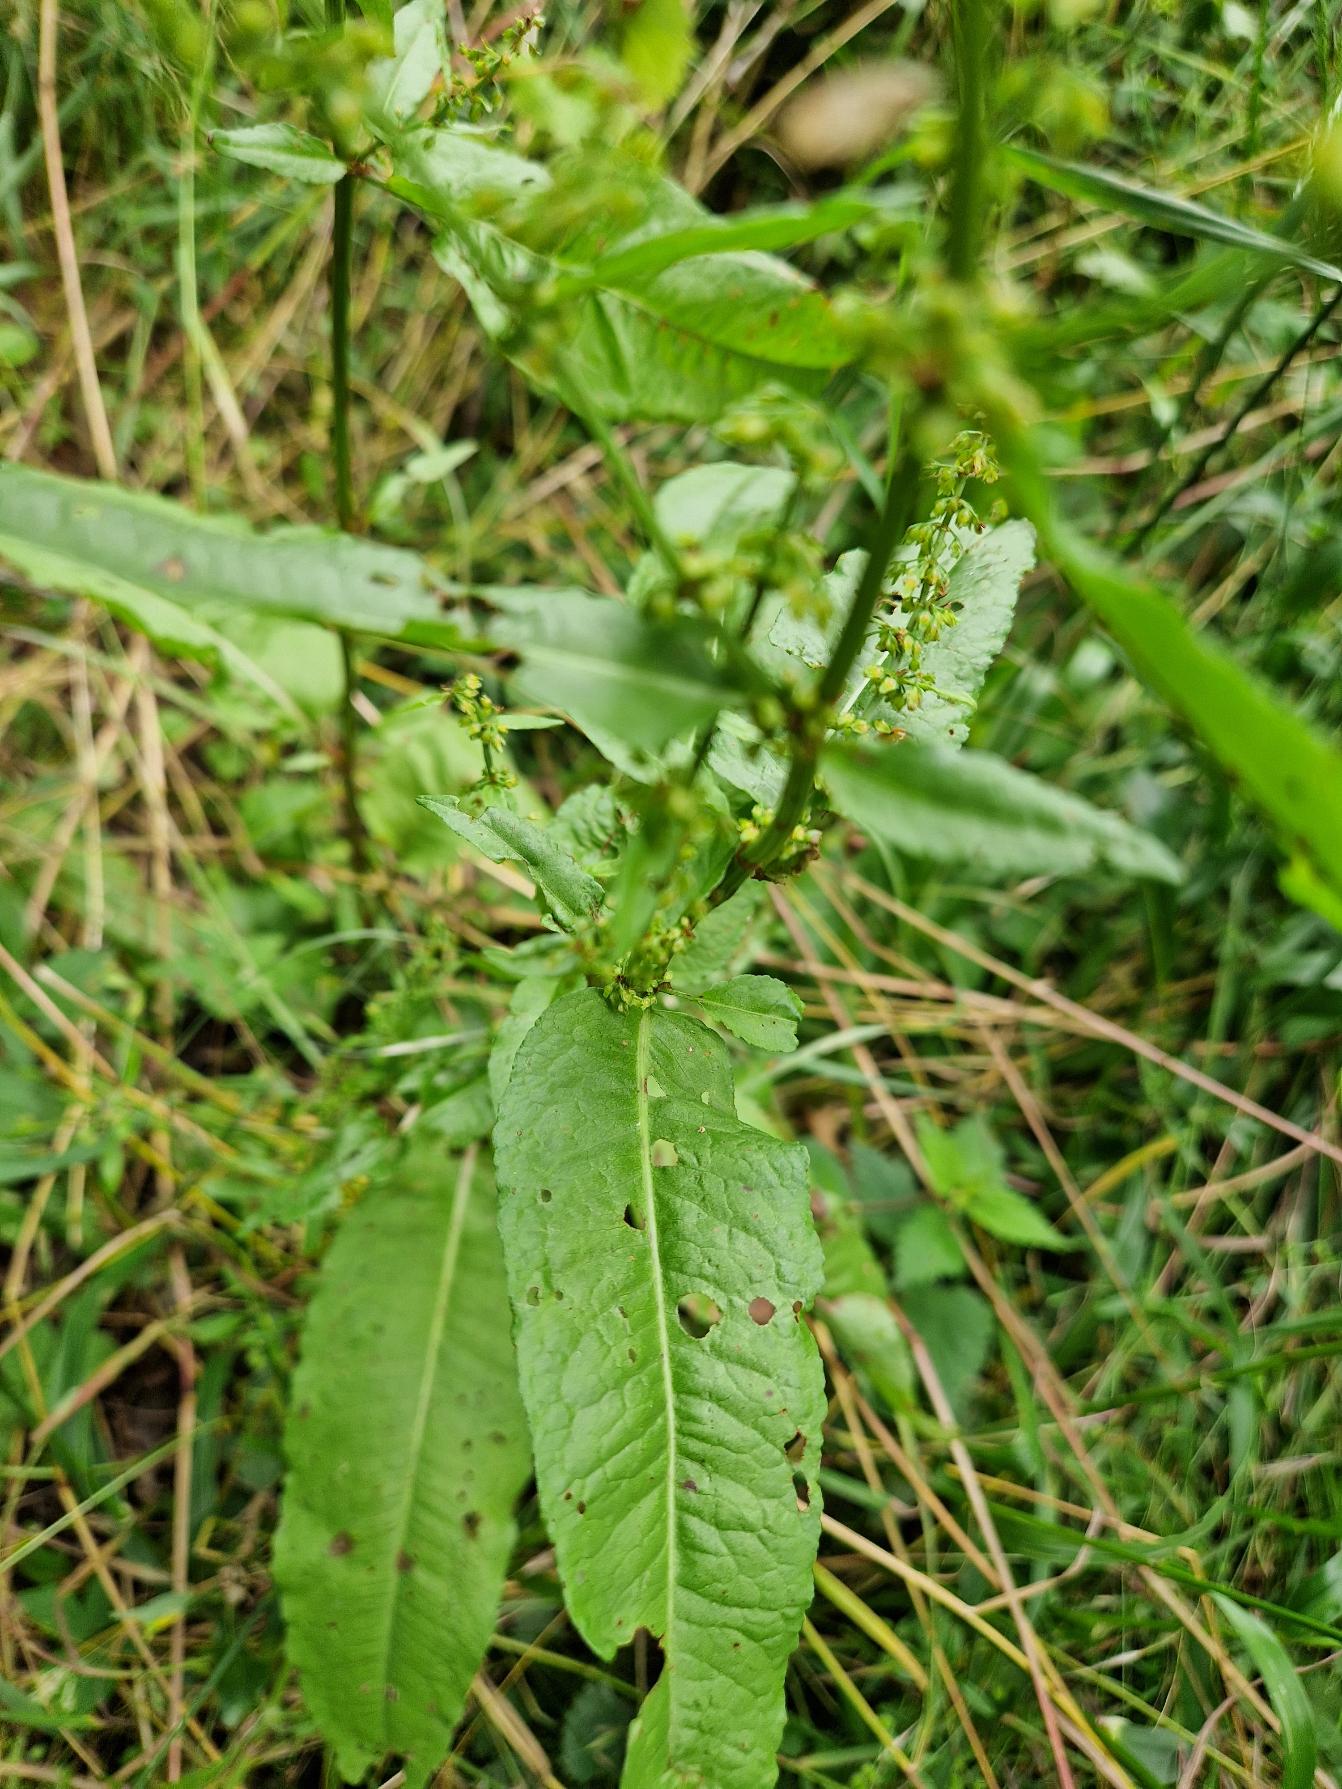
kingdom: Plantae
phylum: Tracheophyta
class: Magnoliopsida
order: Caryophyllales
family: Polygonaceae
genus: Rumex
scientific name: Rumex sanguineus
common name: Skov-skræppe
